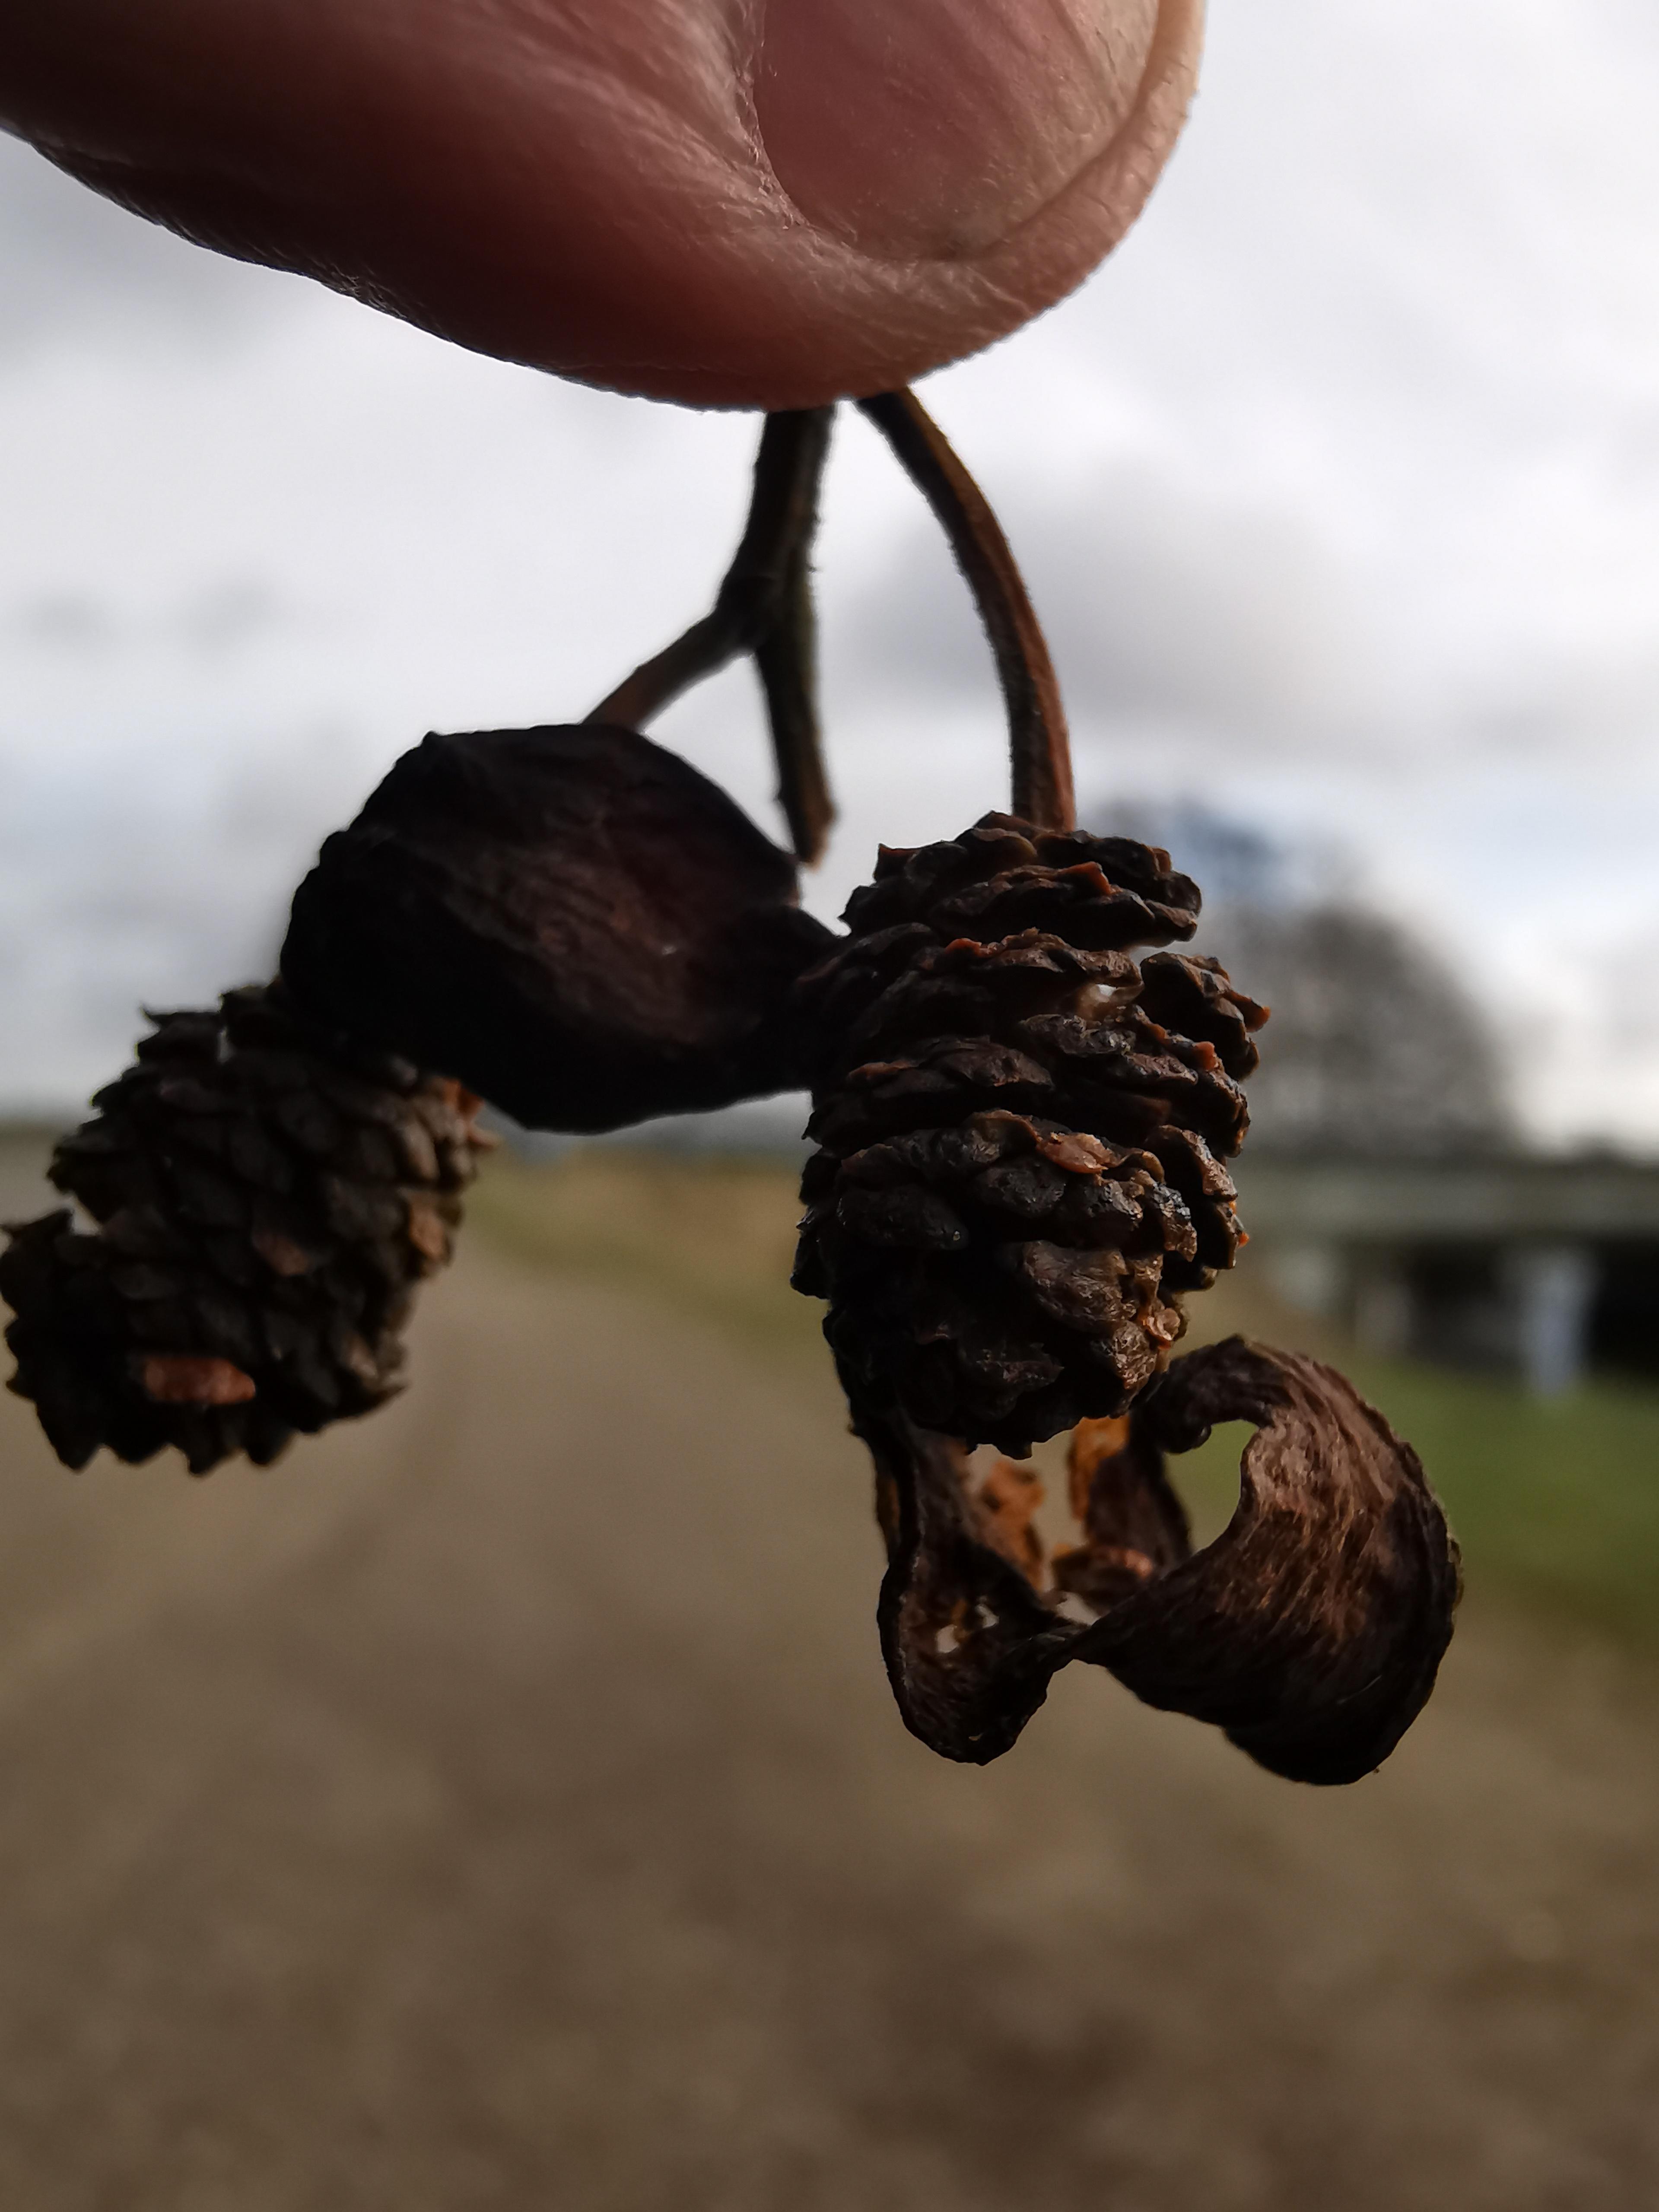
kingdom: Fungi
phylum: Ascomycota
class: Taphrinomycetes
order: Taphrinales
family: Taphrinaceae
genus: Taphrina
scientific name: Taphrina alni
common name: Alder tongue
